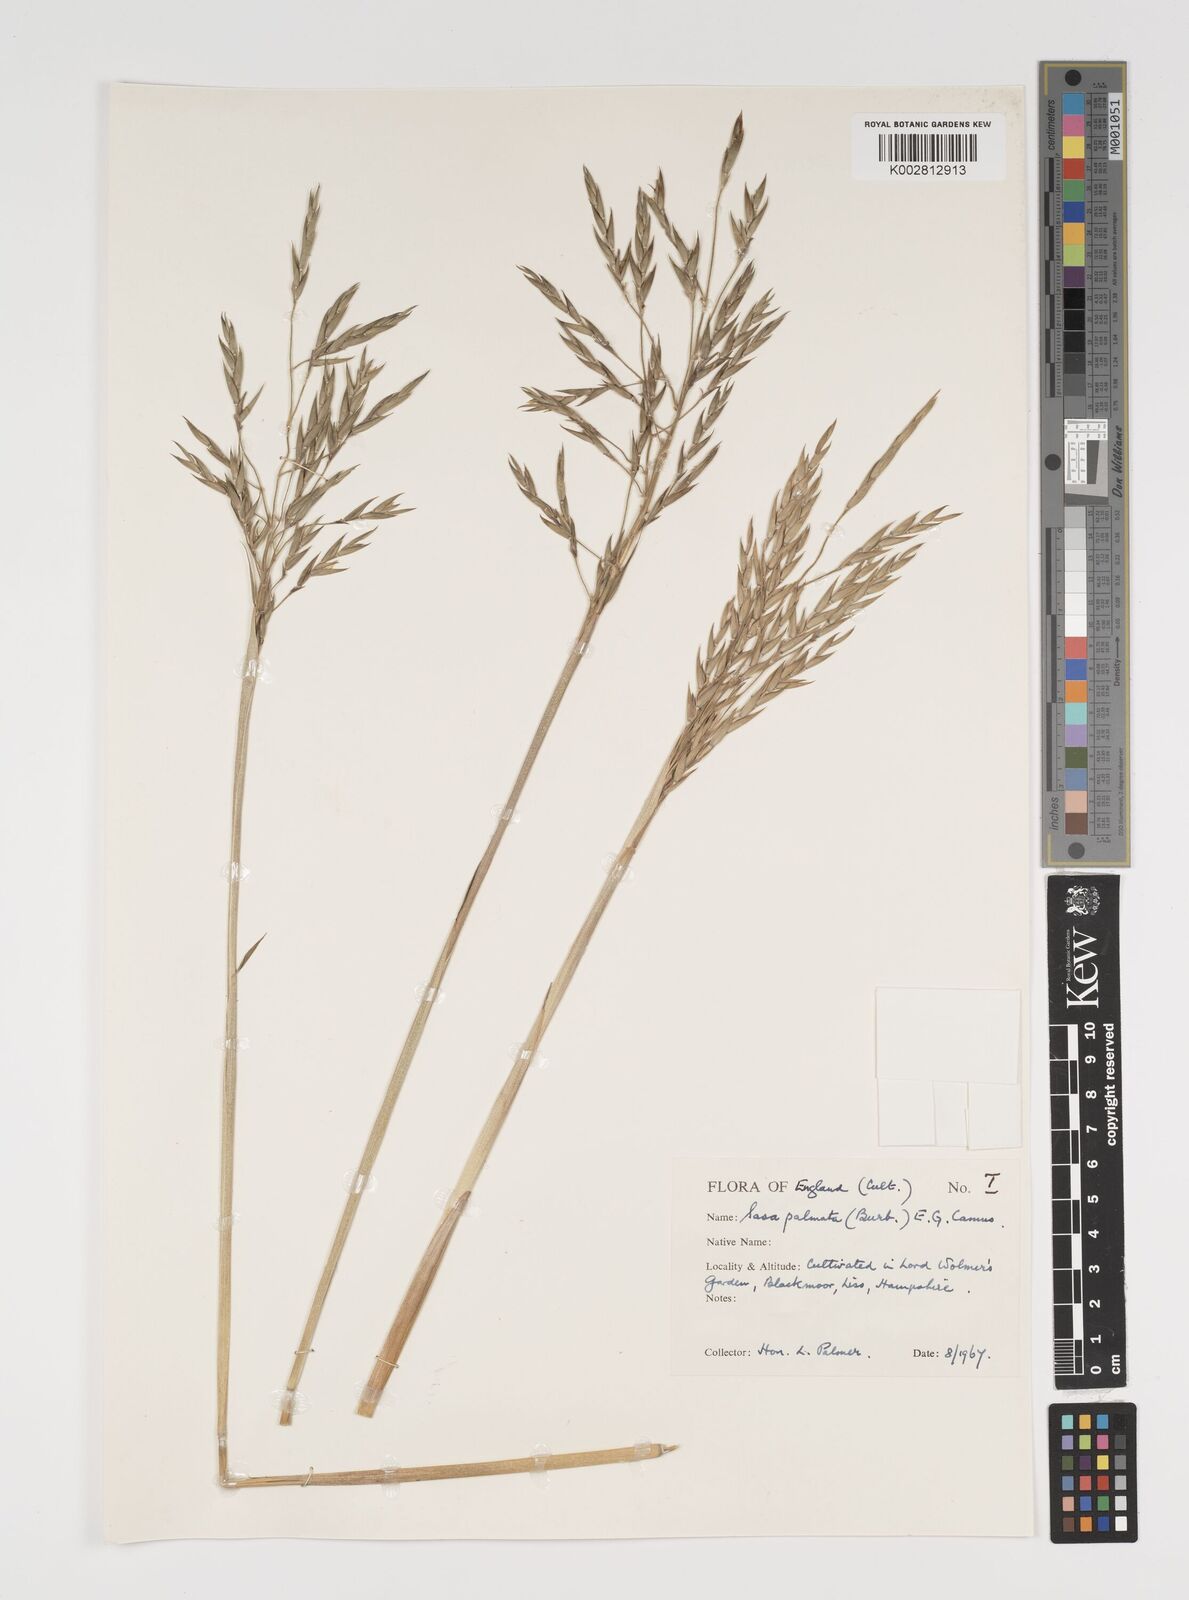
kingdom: Plantae
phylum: Tracheophyta
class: Liliopsida
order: Poales
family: Poaceae
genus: Sasa
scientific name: Sasa palmata
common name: Broad-leaved bamboo
